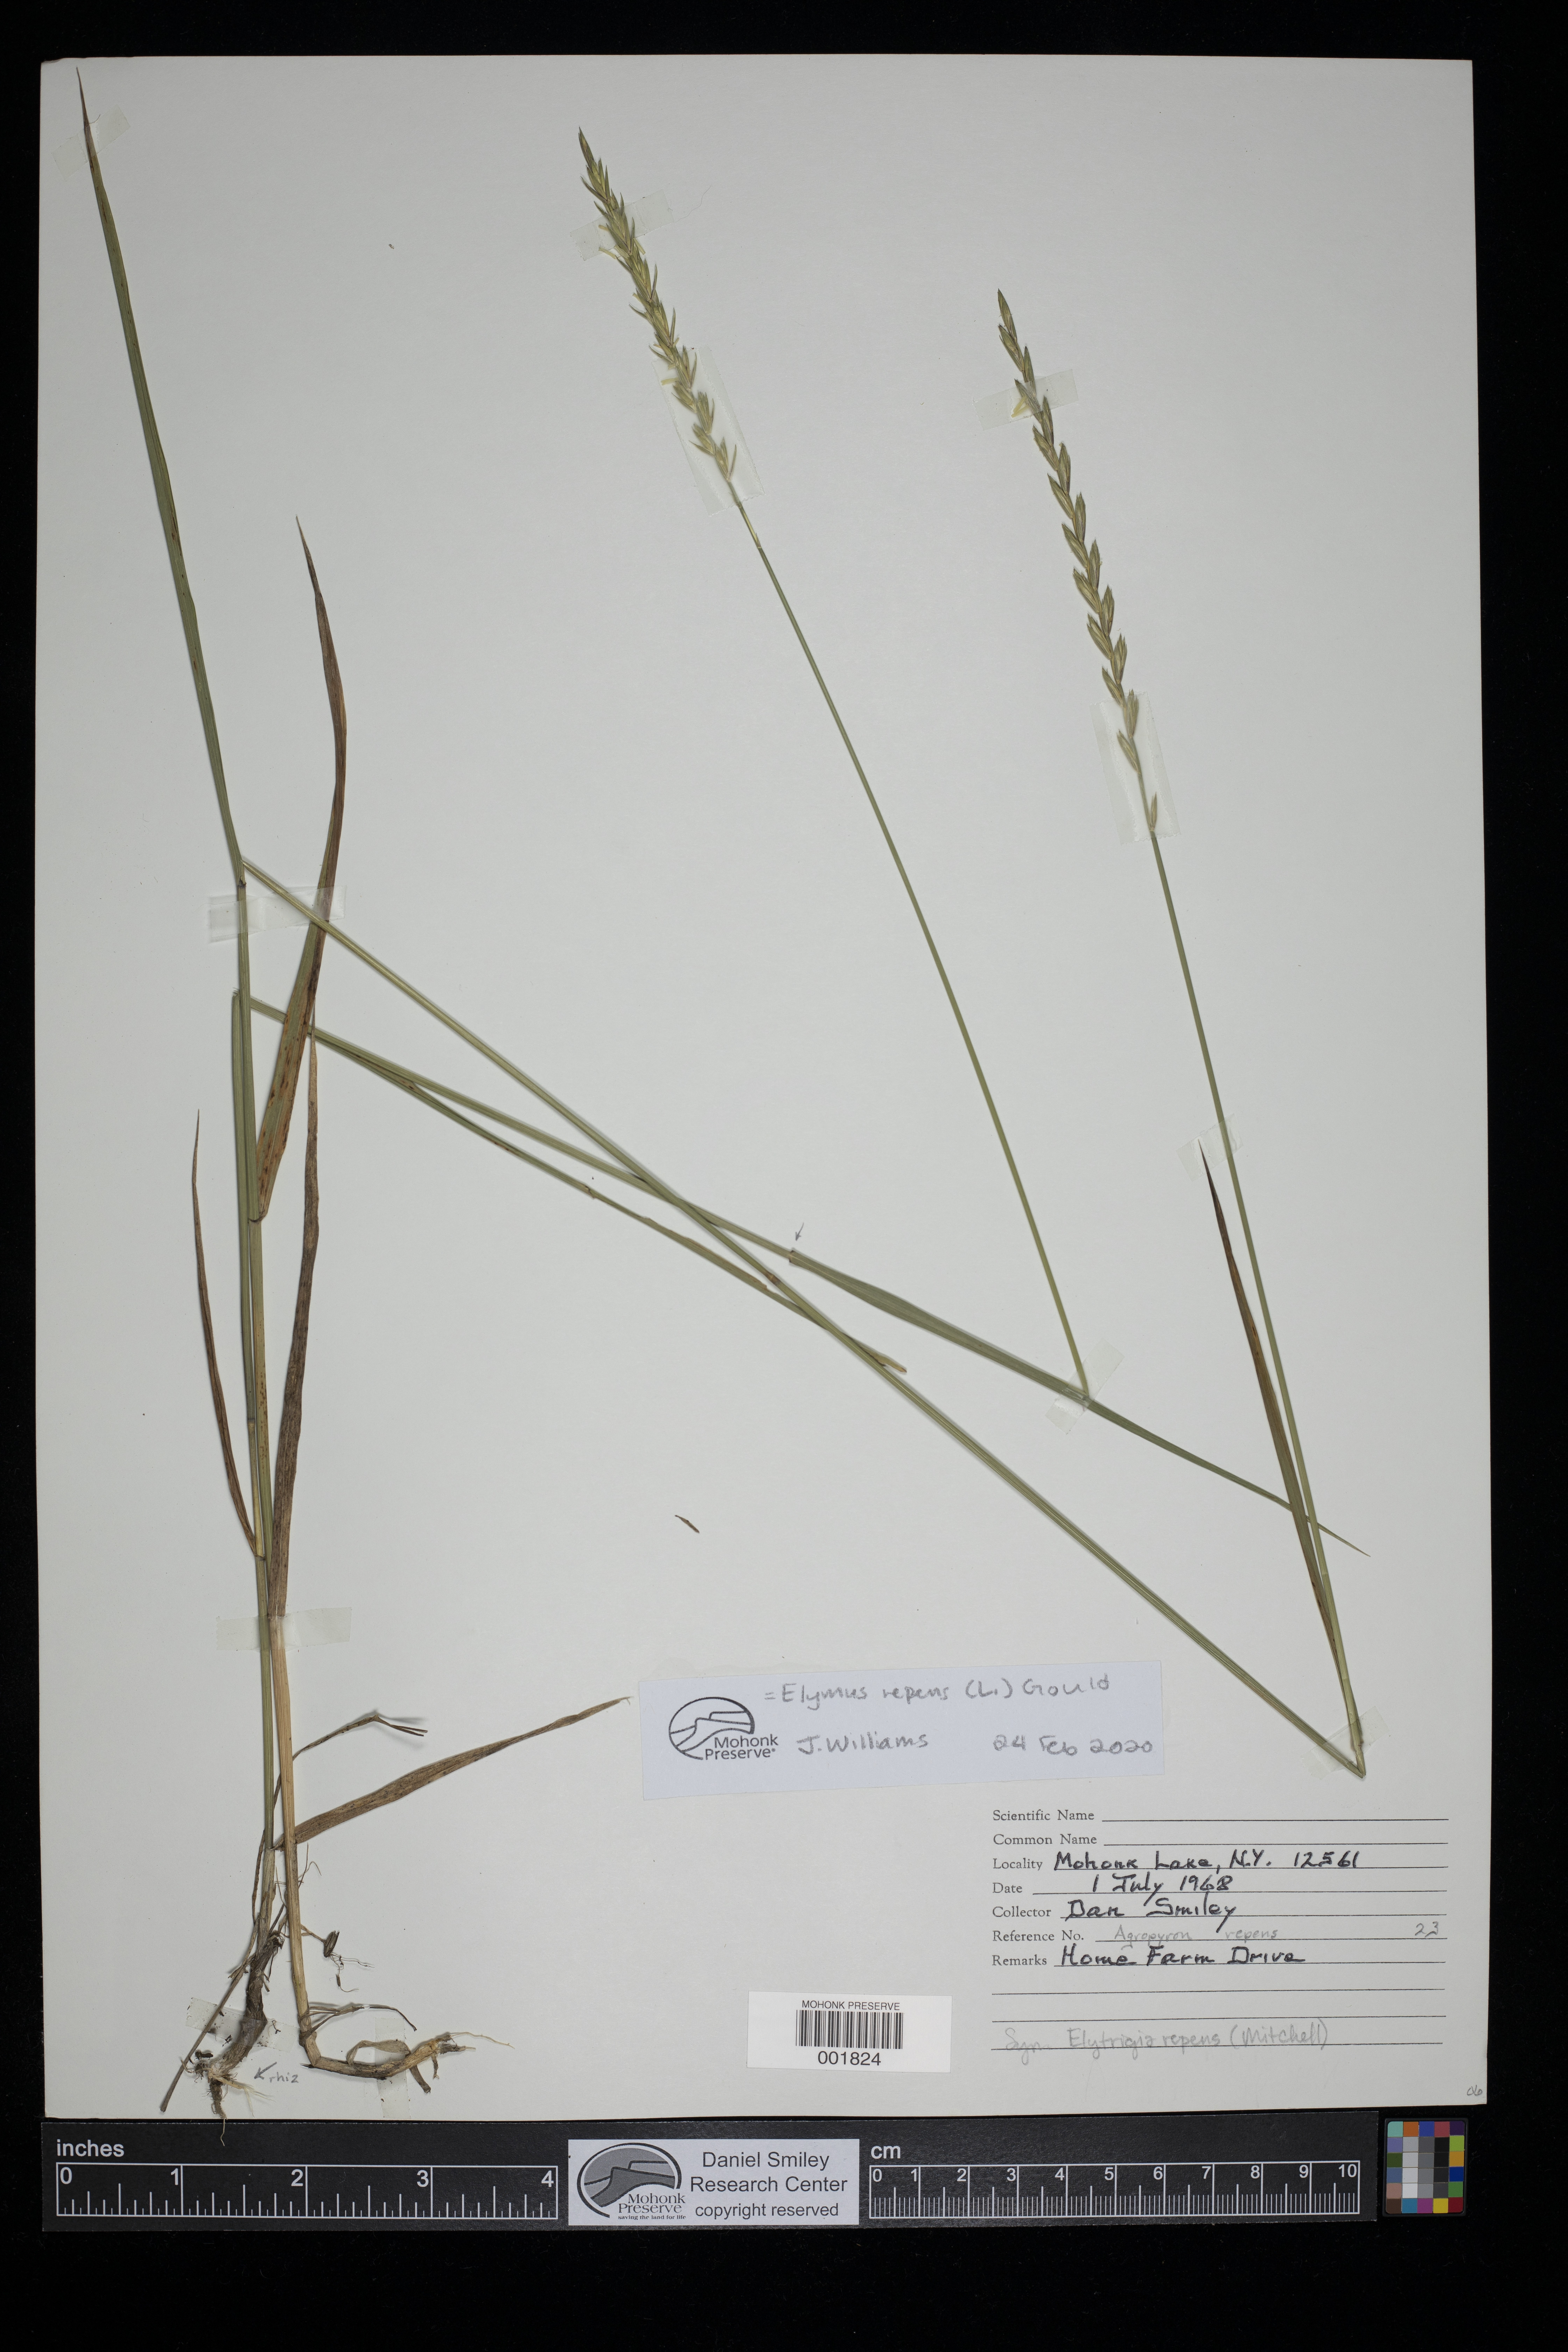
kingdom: Plantae
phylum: Tracheophyta
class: Liliopsida
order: Poales
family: Poaceae
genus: Elymus
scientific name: Elymus repens
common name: Quackgrass
